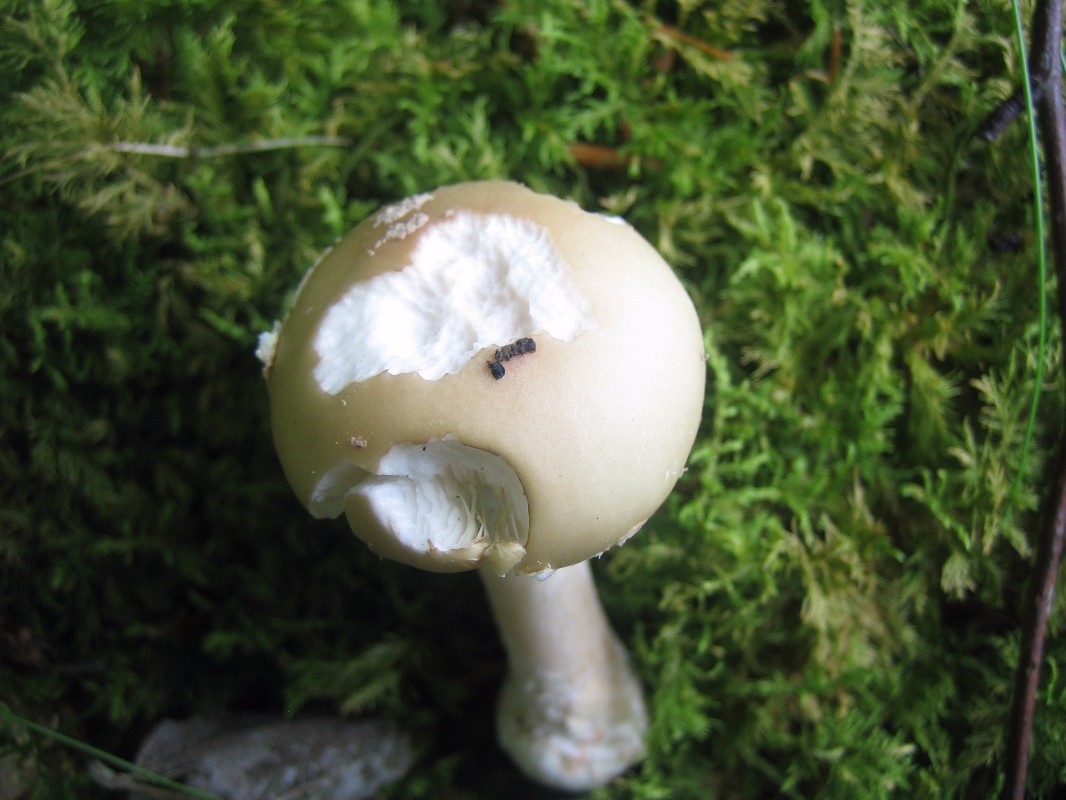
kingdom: Fungi
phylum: Basidiomycota
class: Agaricomycetes
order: Agaricales
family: Amanitaceae
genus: Amanita
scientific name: Amanita
